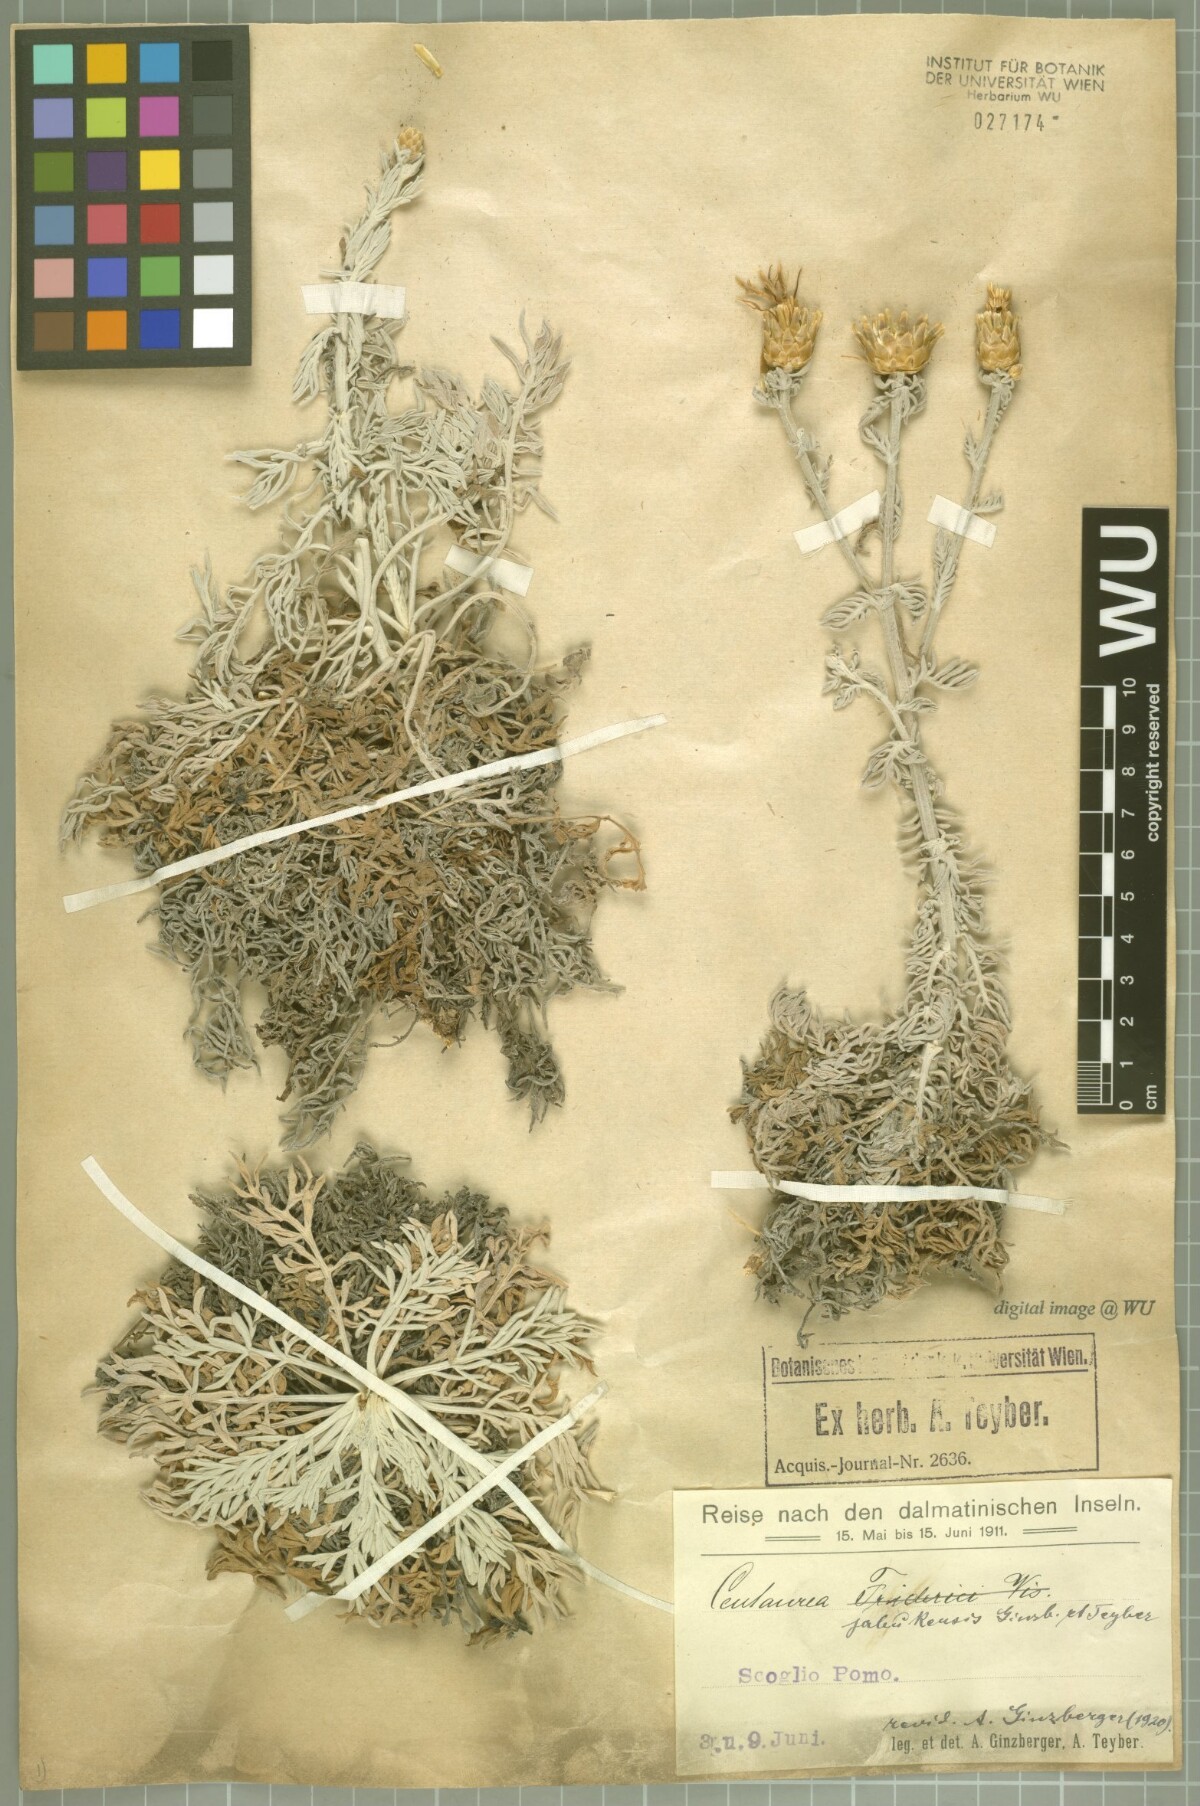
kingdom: Plantae
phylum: Tracheophyta
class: Magnoliopsida
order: Asterales
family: Asteraceae
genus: Centaurea
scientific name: Centaurea friderici
